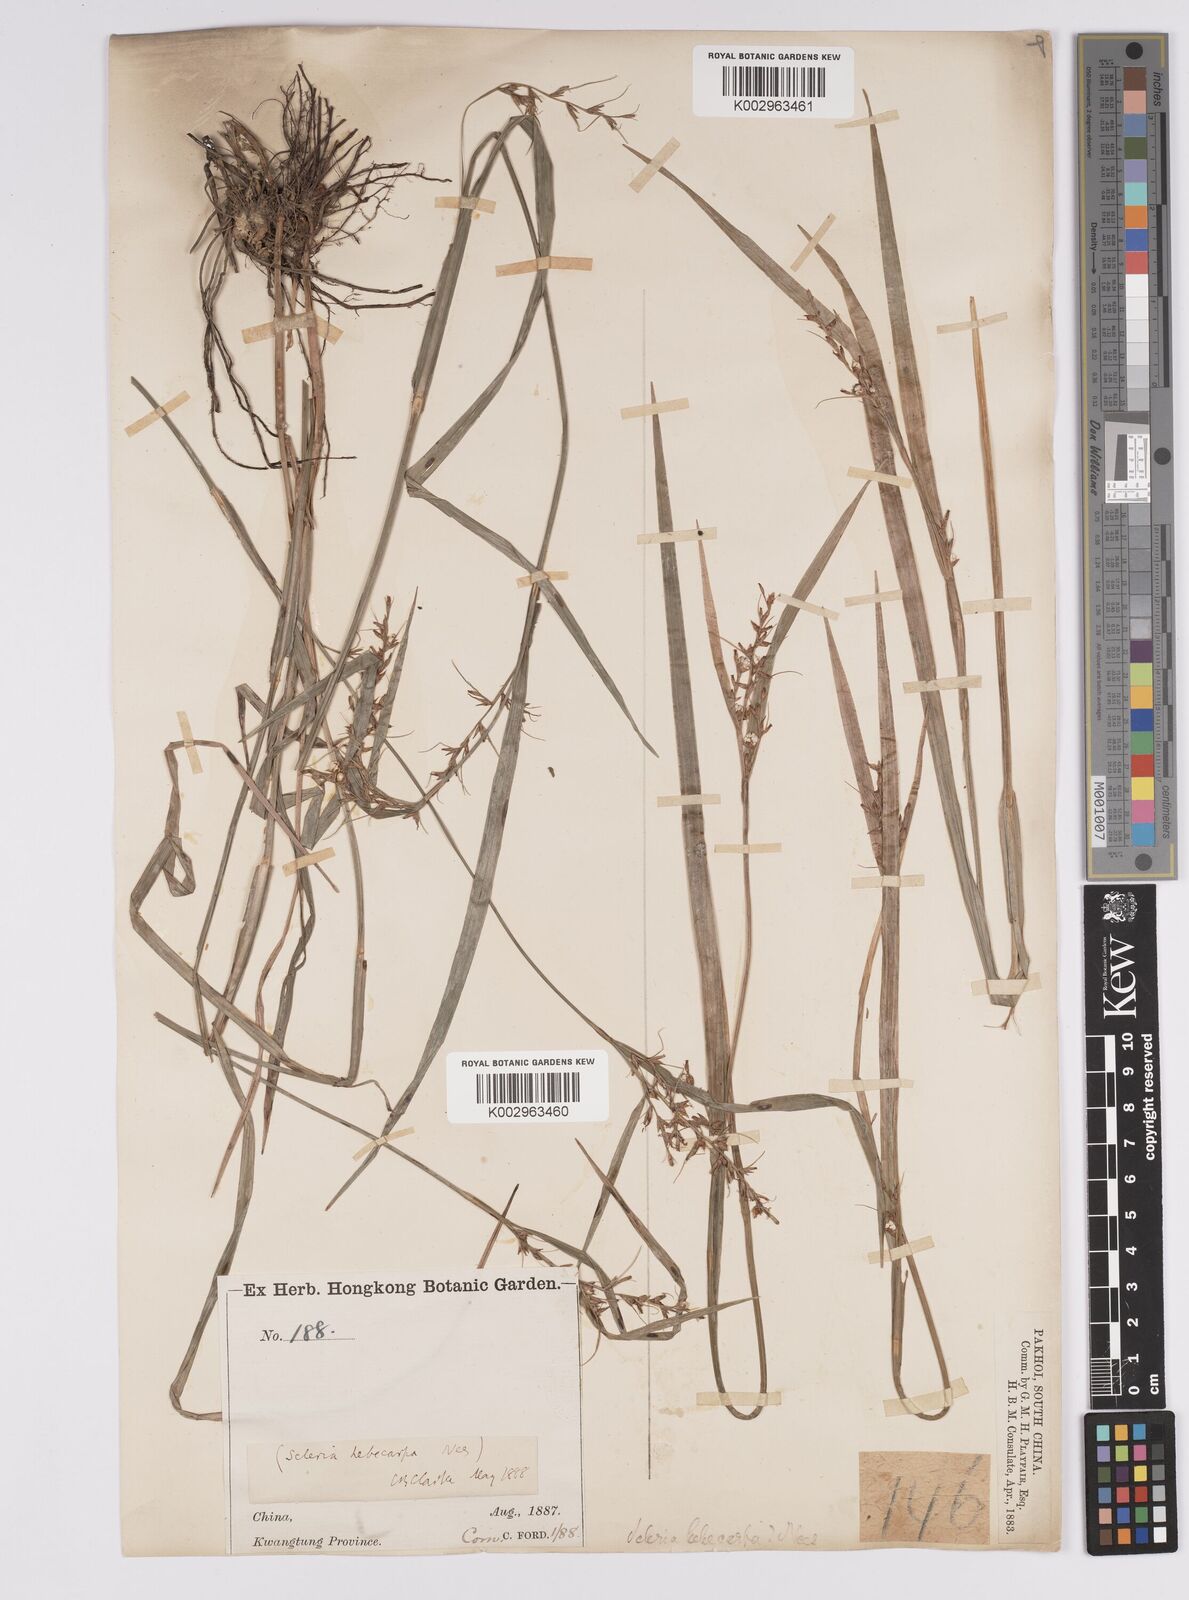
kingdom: Plantae
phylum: Tracheophyta
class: Liliopsida
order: Poales
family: Cyperaceae
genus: Scleria
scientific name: Scleria levis
